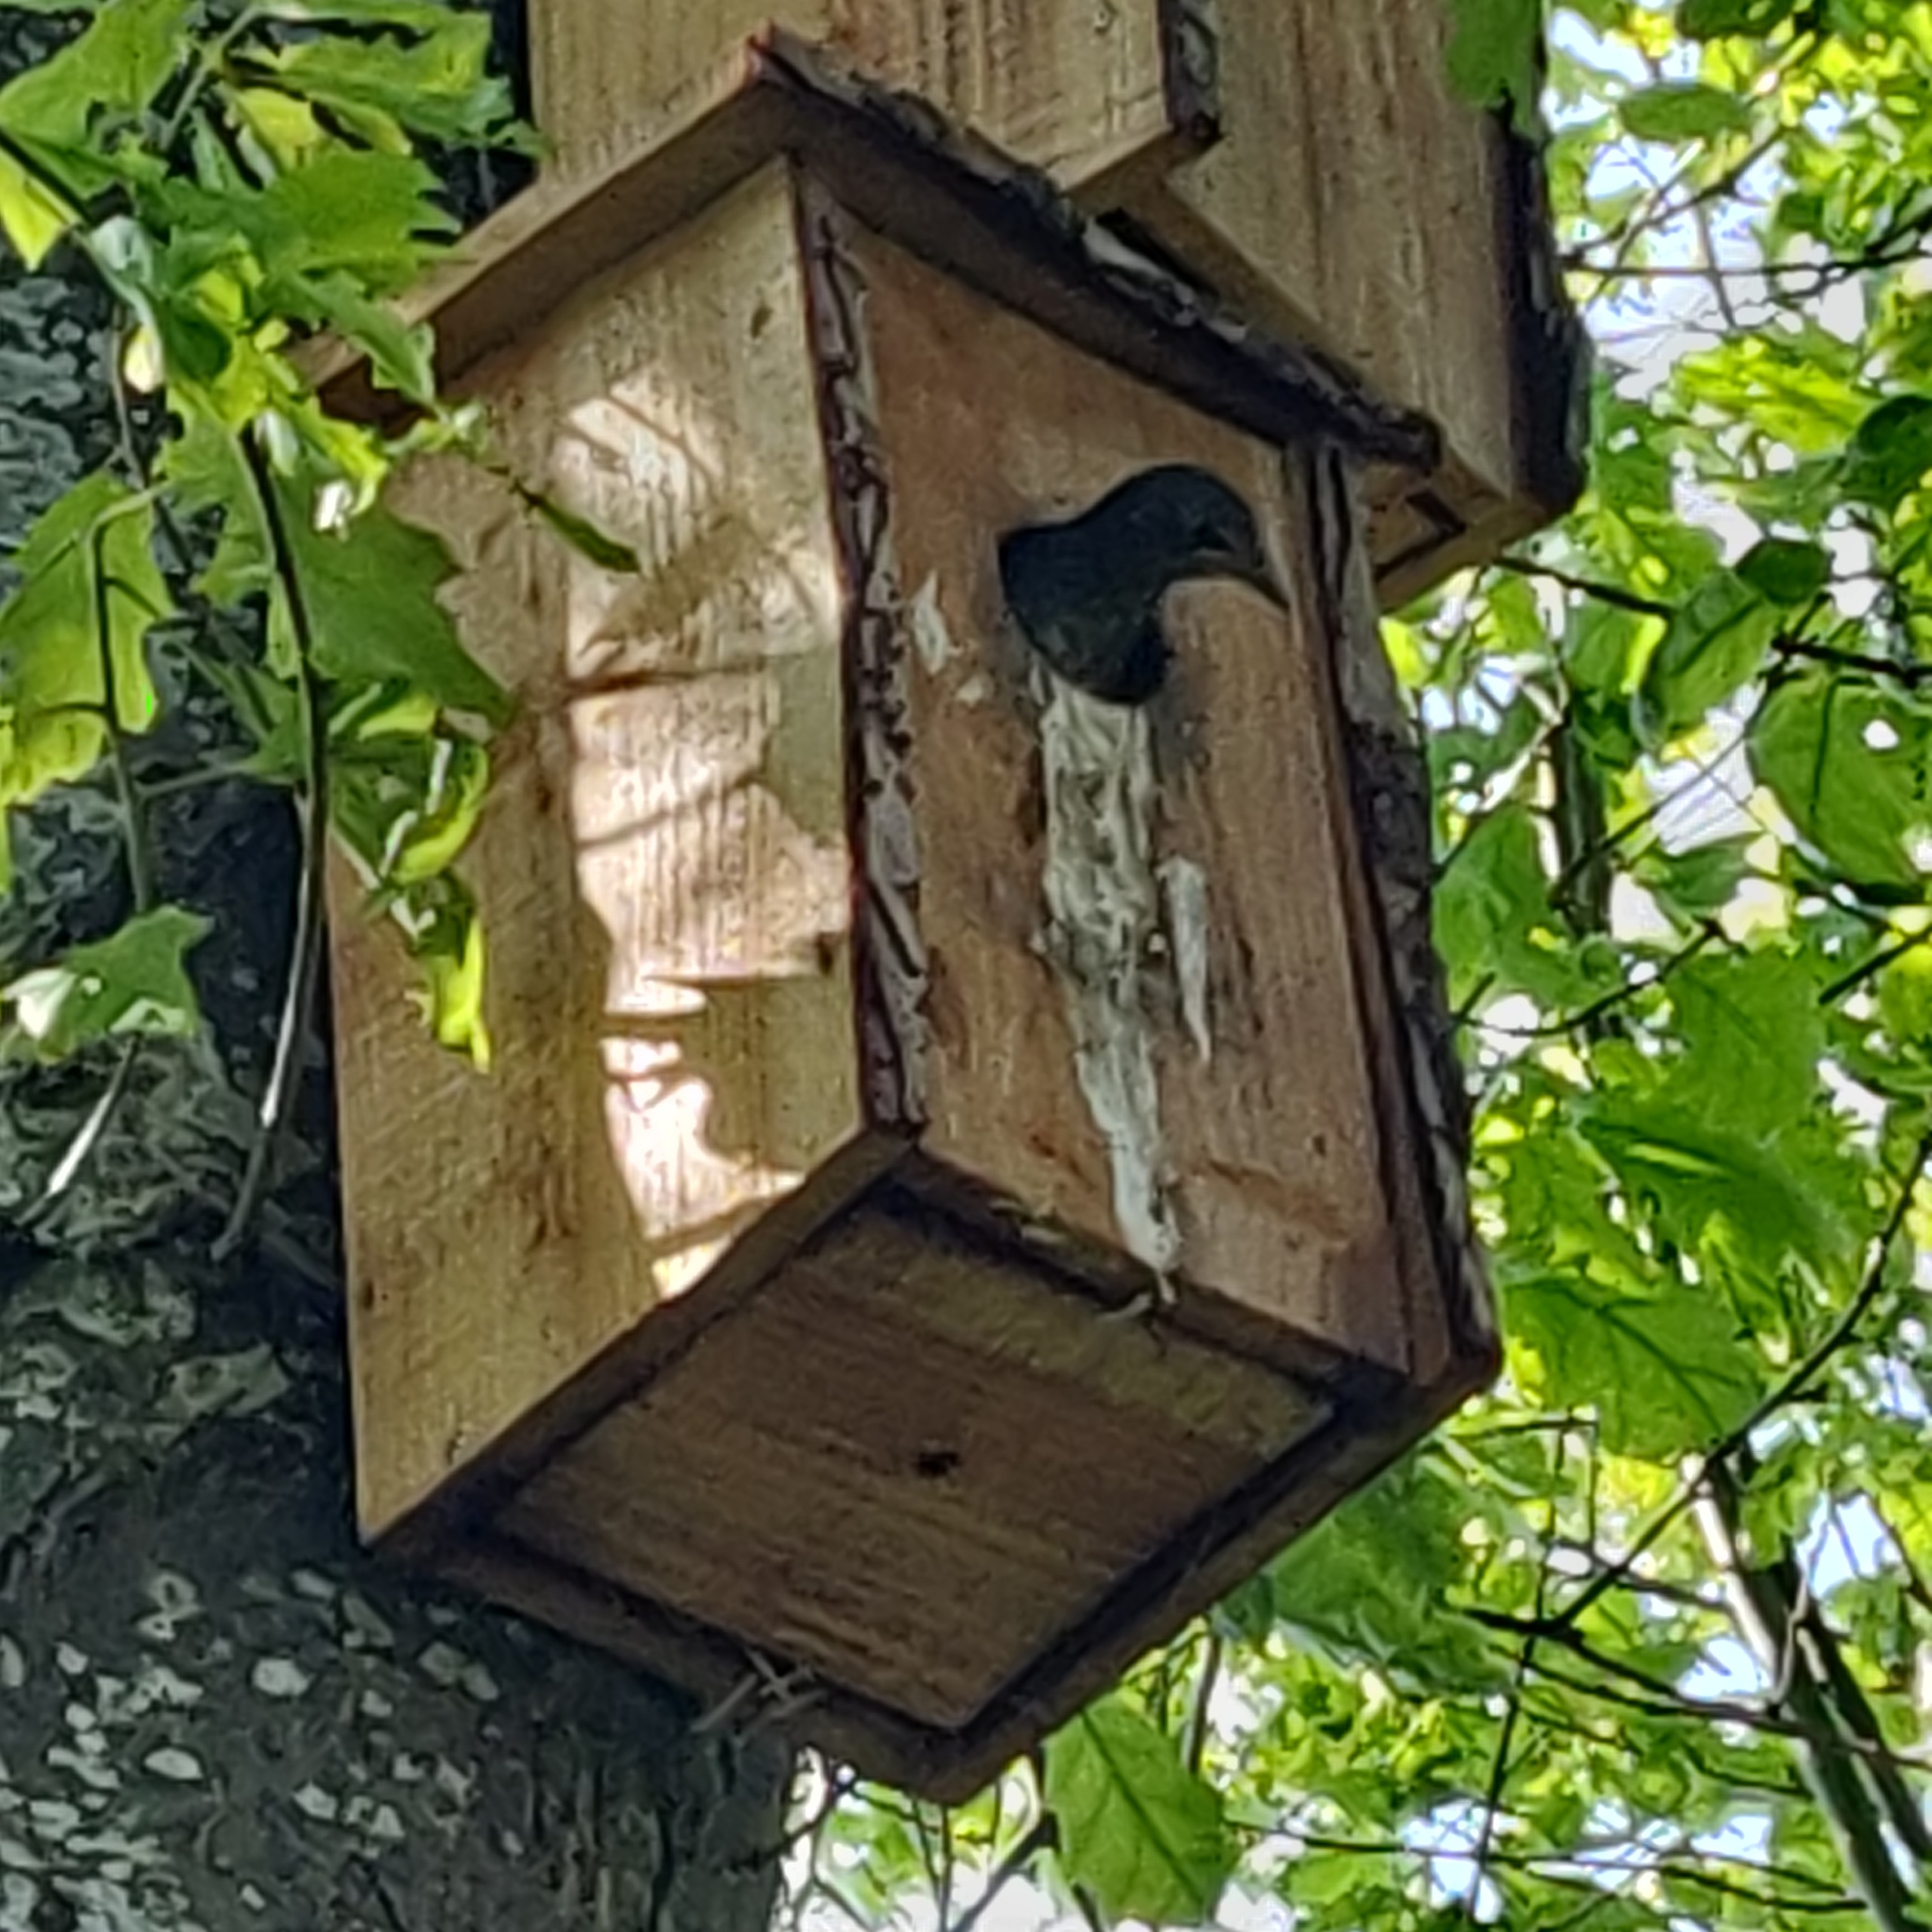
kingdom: Animalia
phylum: Chordata
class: Aves
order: Passeriformes
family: Sturnidae
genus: Sturnus
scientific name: Sturnus vulgaris
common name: Stær
